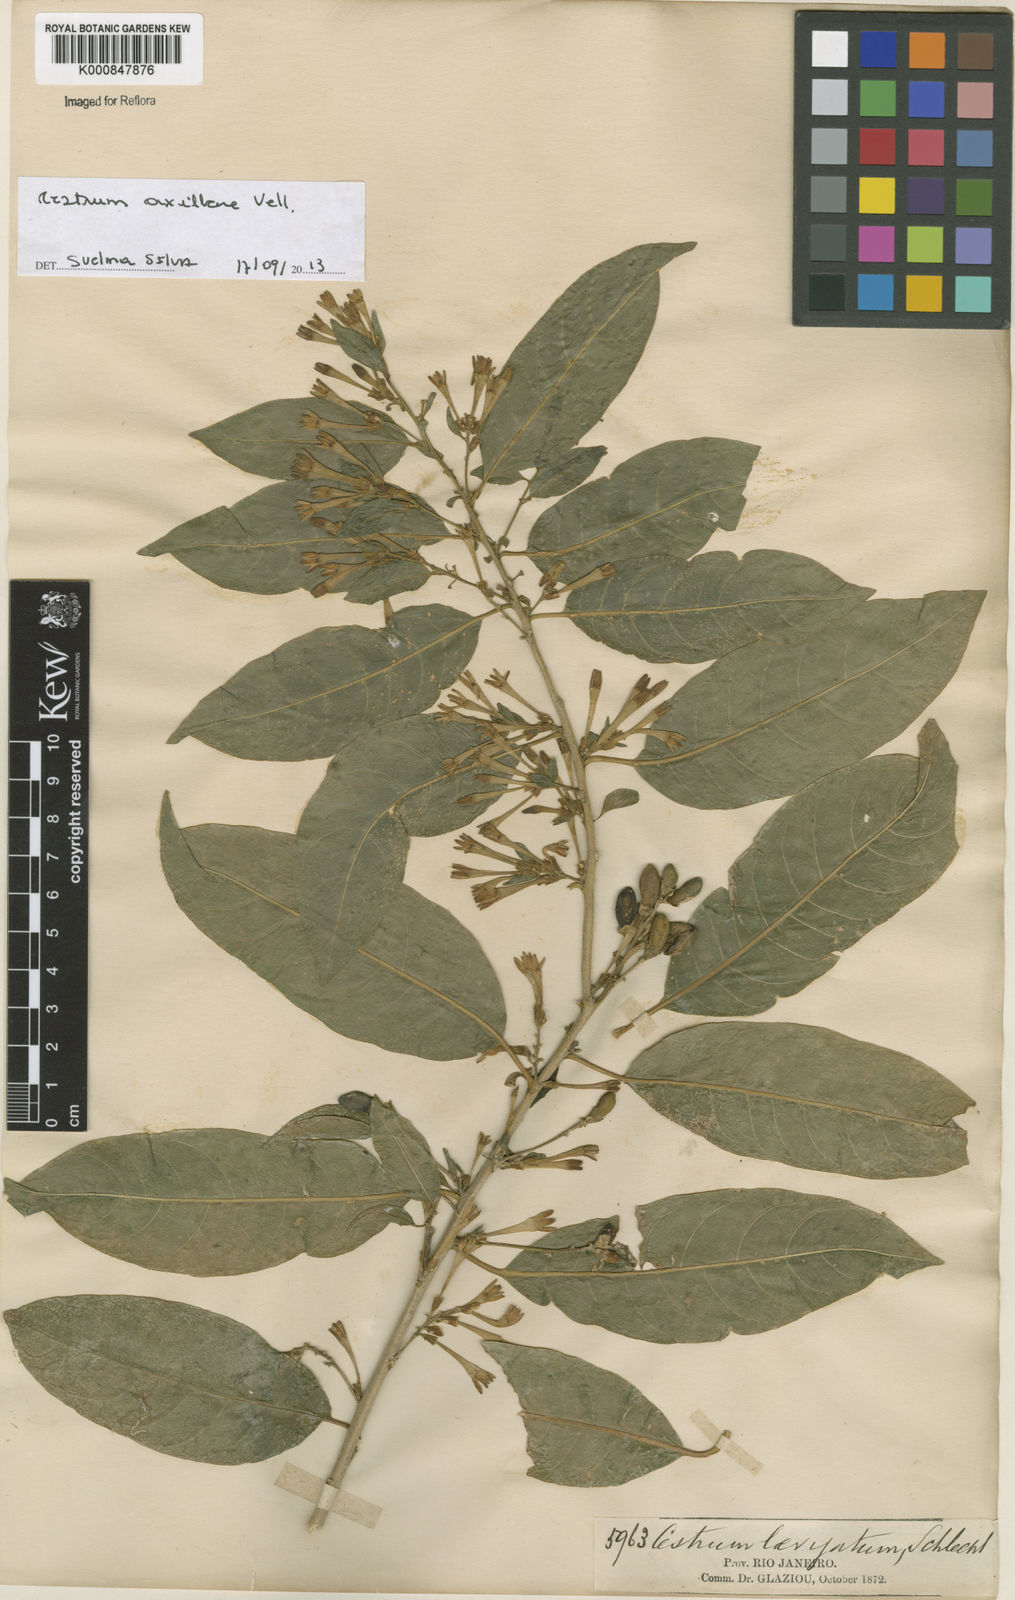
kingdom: Plantae
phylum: Tracheophyta
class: Magnoliopsida
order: Solanales
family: Solanaceae
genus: Cestrum
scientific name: Cestrum laevigatum
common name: Inkberry
